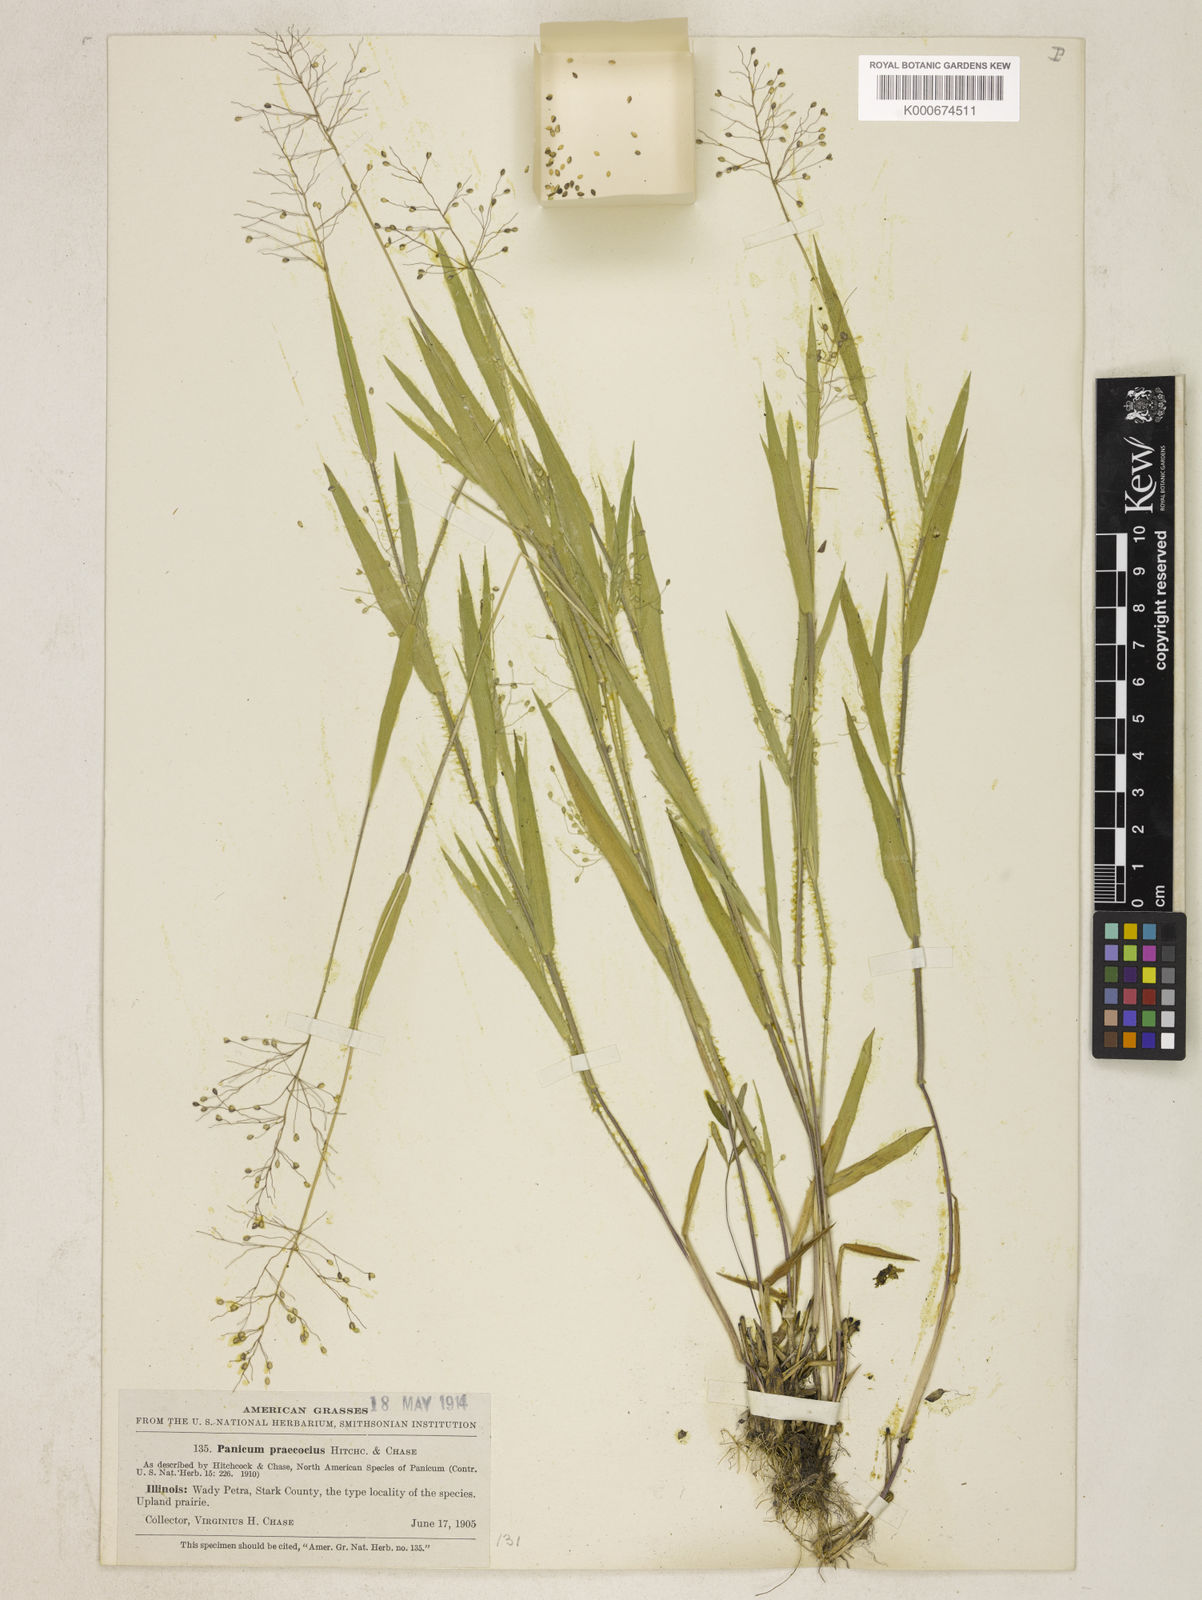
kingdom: Plantae
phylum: Tracheophyta
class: Liliopsida
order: Poales
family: Poaceae
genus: Dichanthelium
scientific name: Dichanthelium praecocius
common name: Early-branching panicgrass
